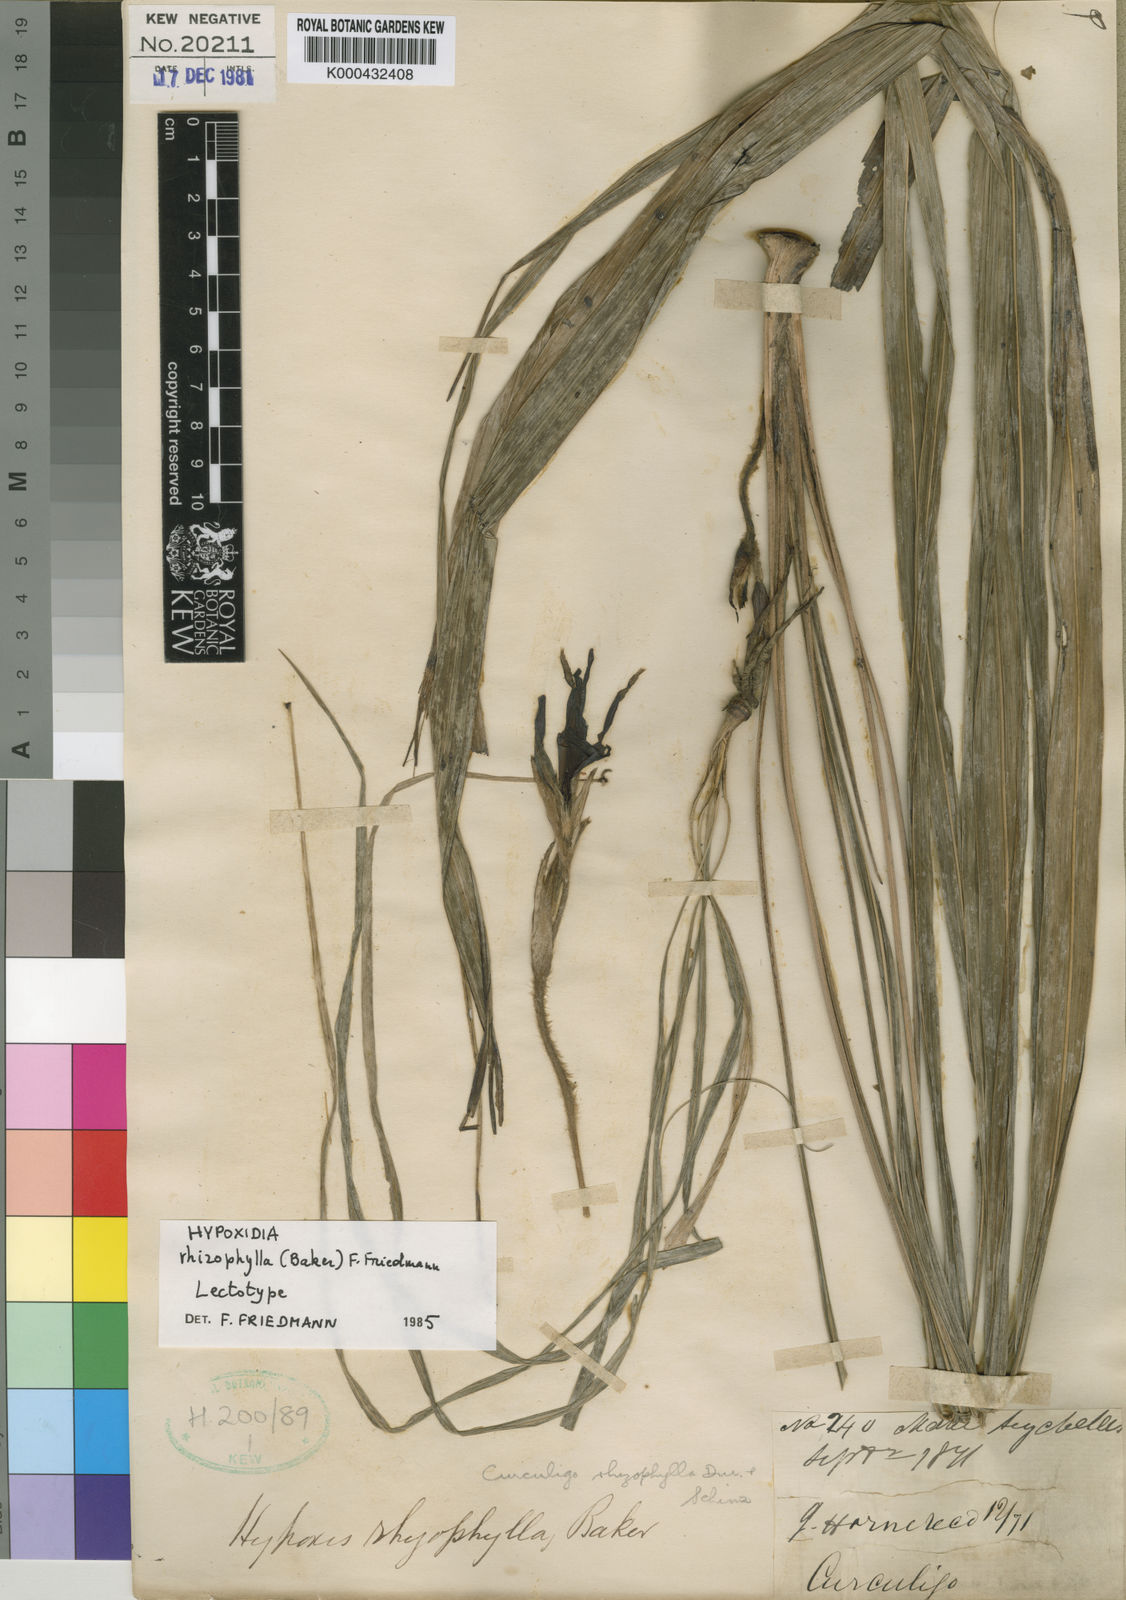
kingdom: Plantae
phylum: Tracheophyta
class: Liliopsida
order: Asparagales
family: Hypoxidaceae
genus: Curculigo
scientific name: Curculigo rhizophylla
